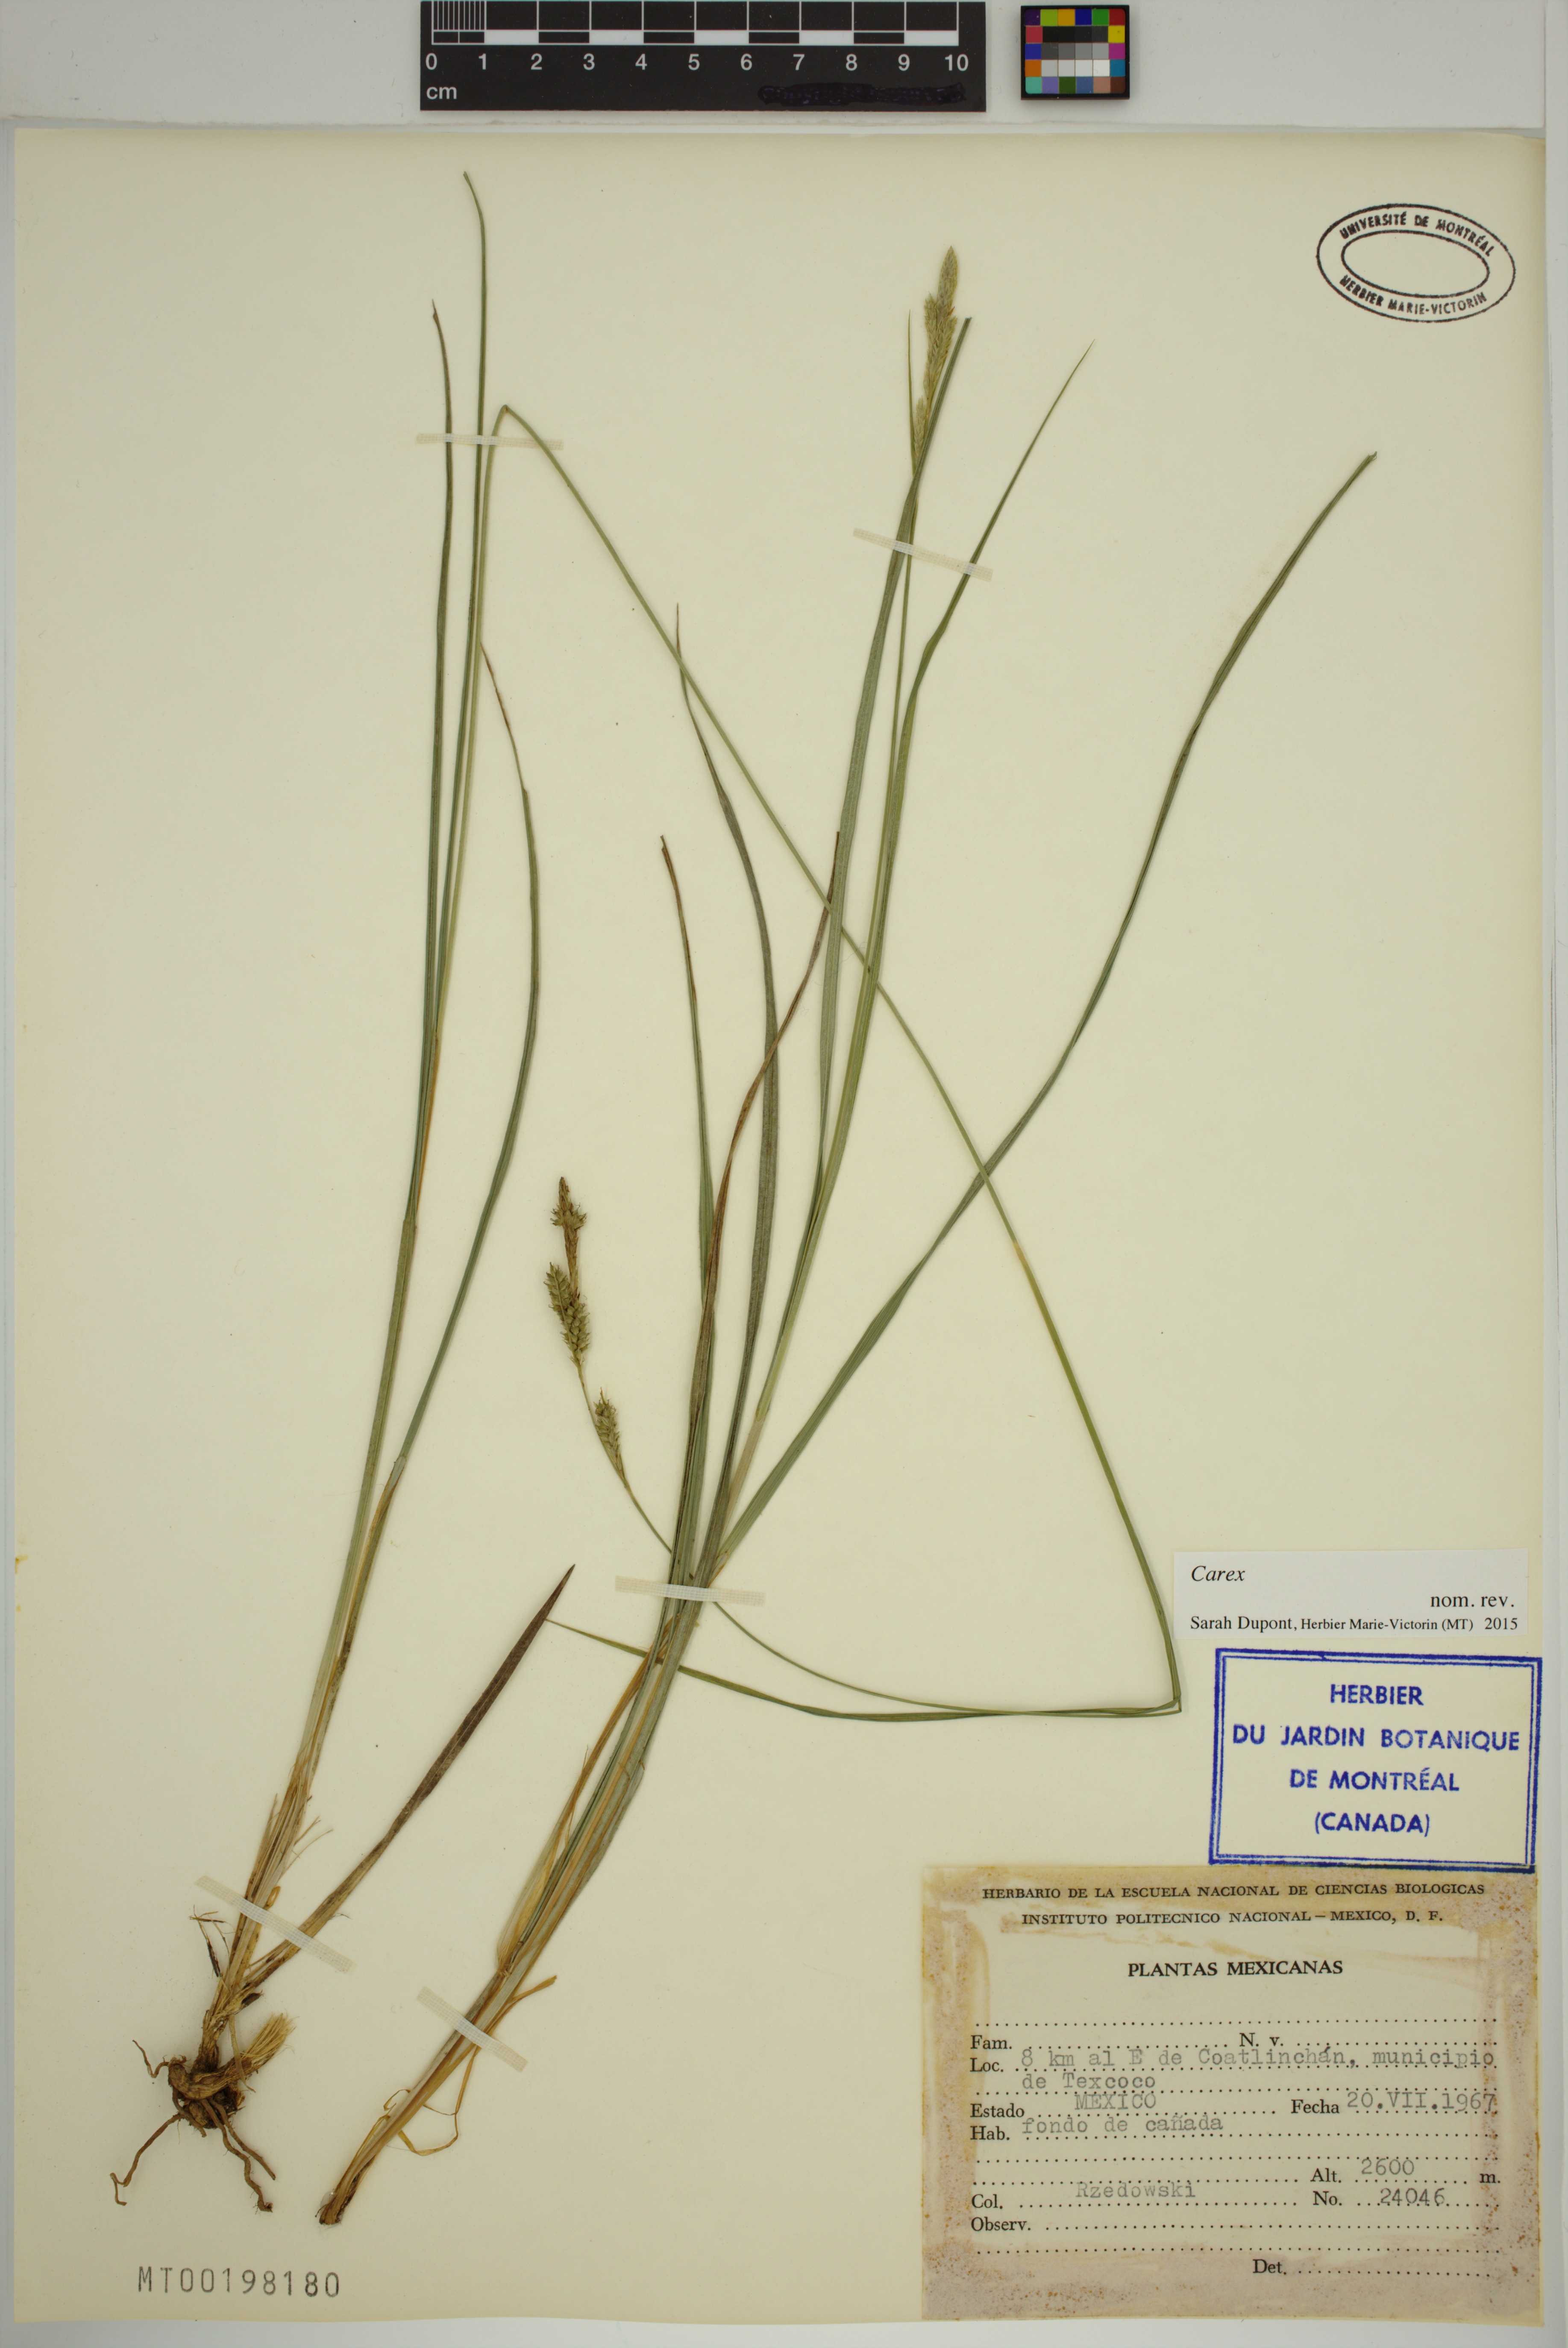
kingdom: Plantae
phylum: Tracheophyta
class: Liliopsida
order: Poales
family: Cyperaceae
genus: Carex
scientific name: Carex
